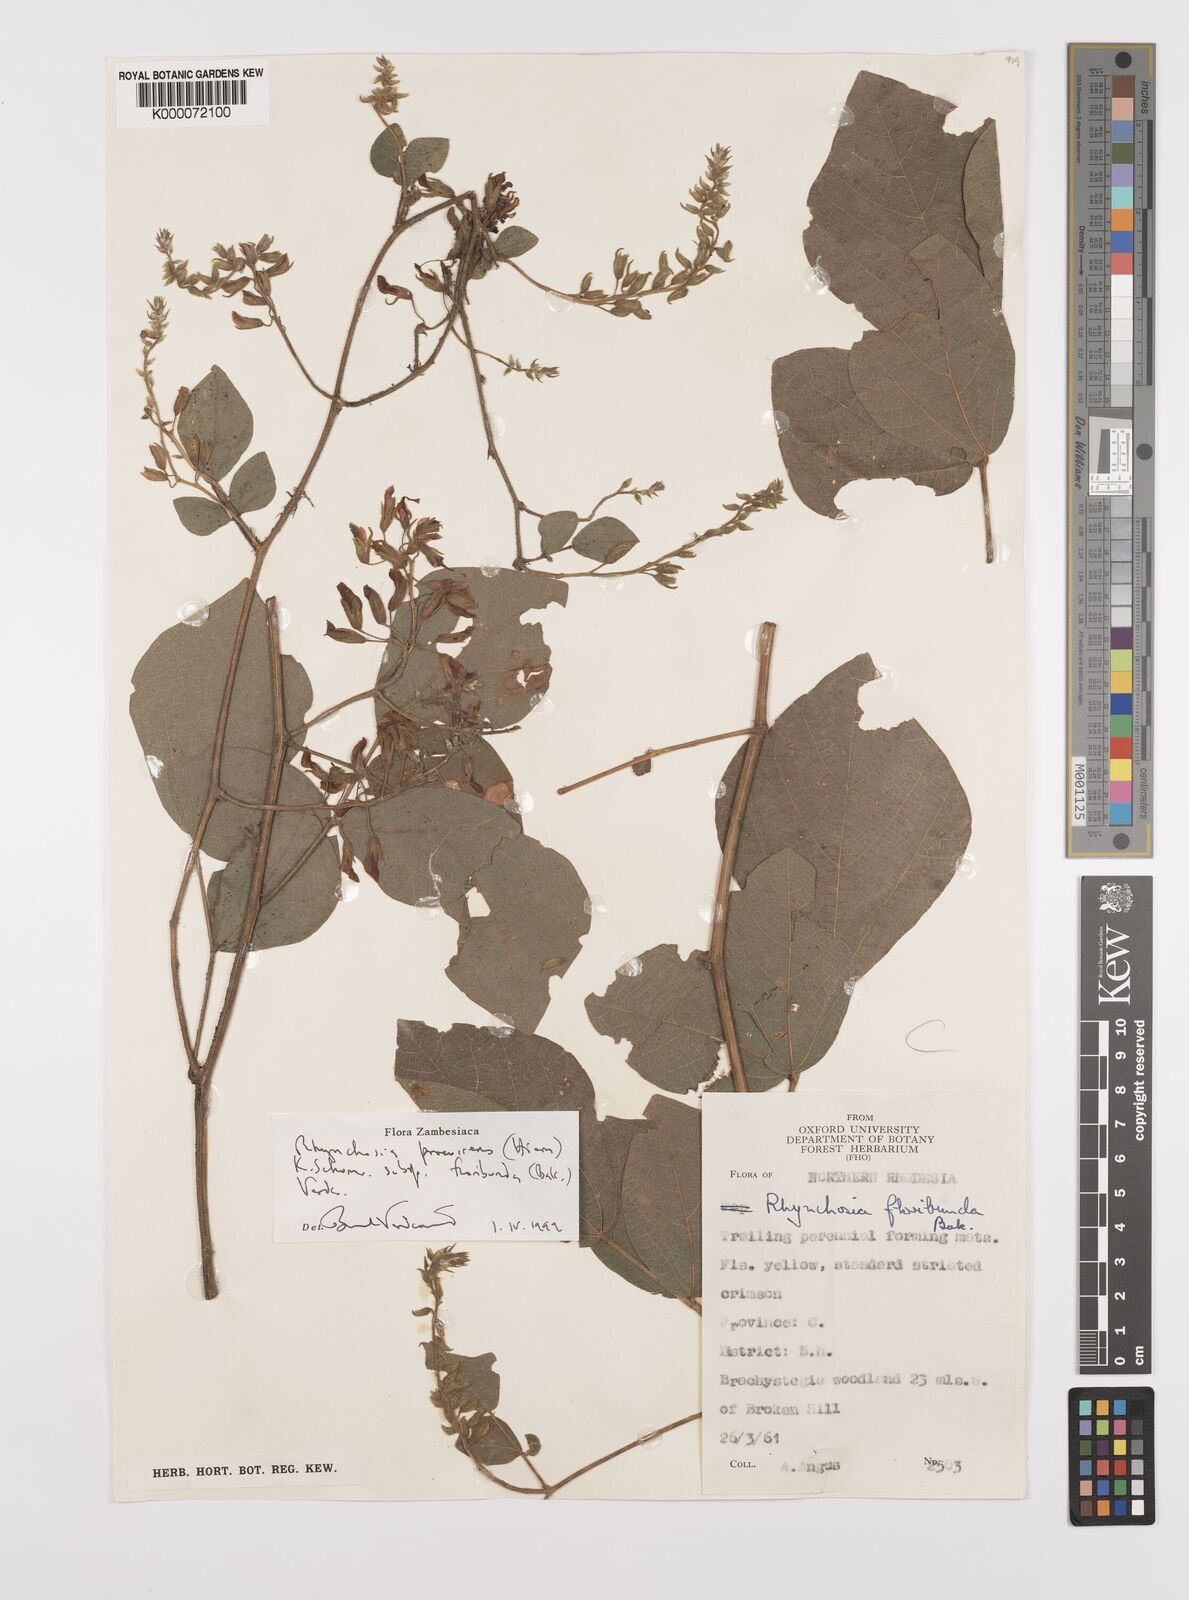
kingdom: Plantae
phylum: Tracheophyta
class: Magnoliopsida
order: Fabales
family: Fabaceae
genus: Rhynchosia
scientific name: Rhynchosia procurrens
